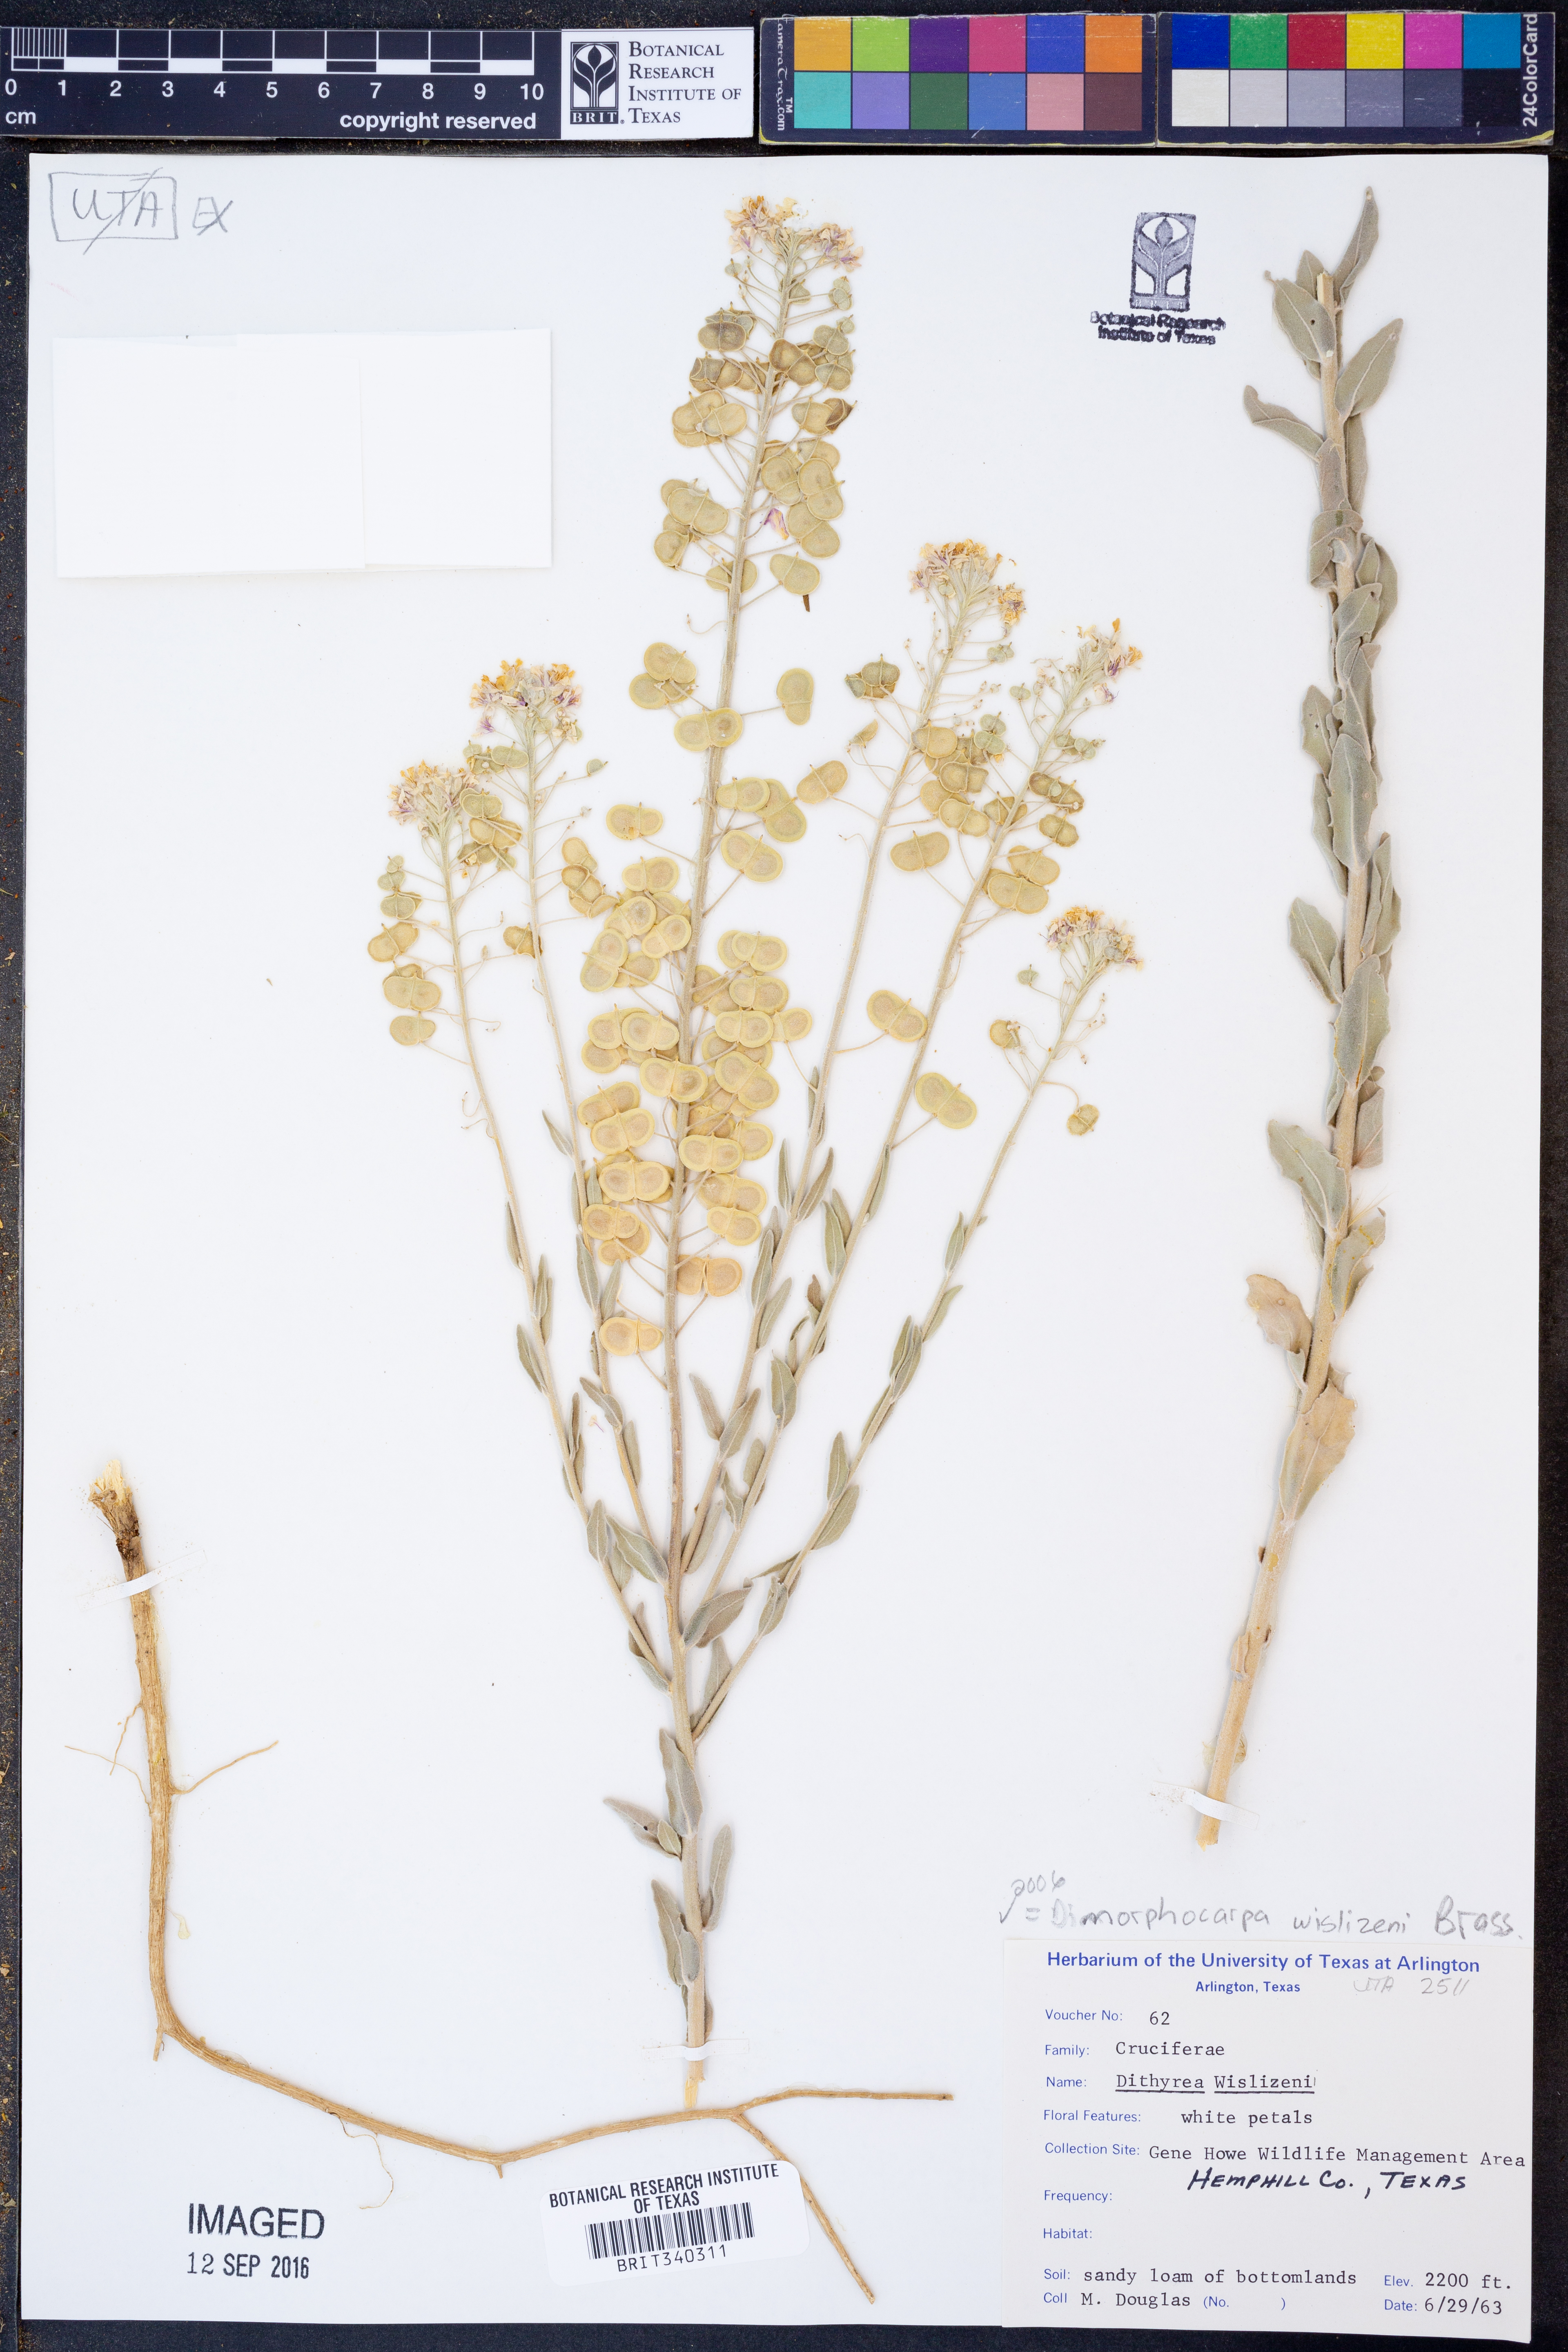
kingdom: Plantae
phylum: Tracheophyta
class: Magnoliopsida
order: Brassicales
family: Brassicaceae
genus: Dimorphocarpa
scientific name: Dimorphocarpa wislizenii
